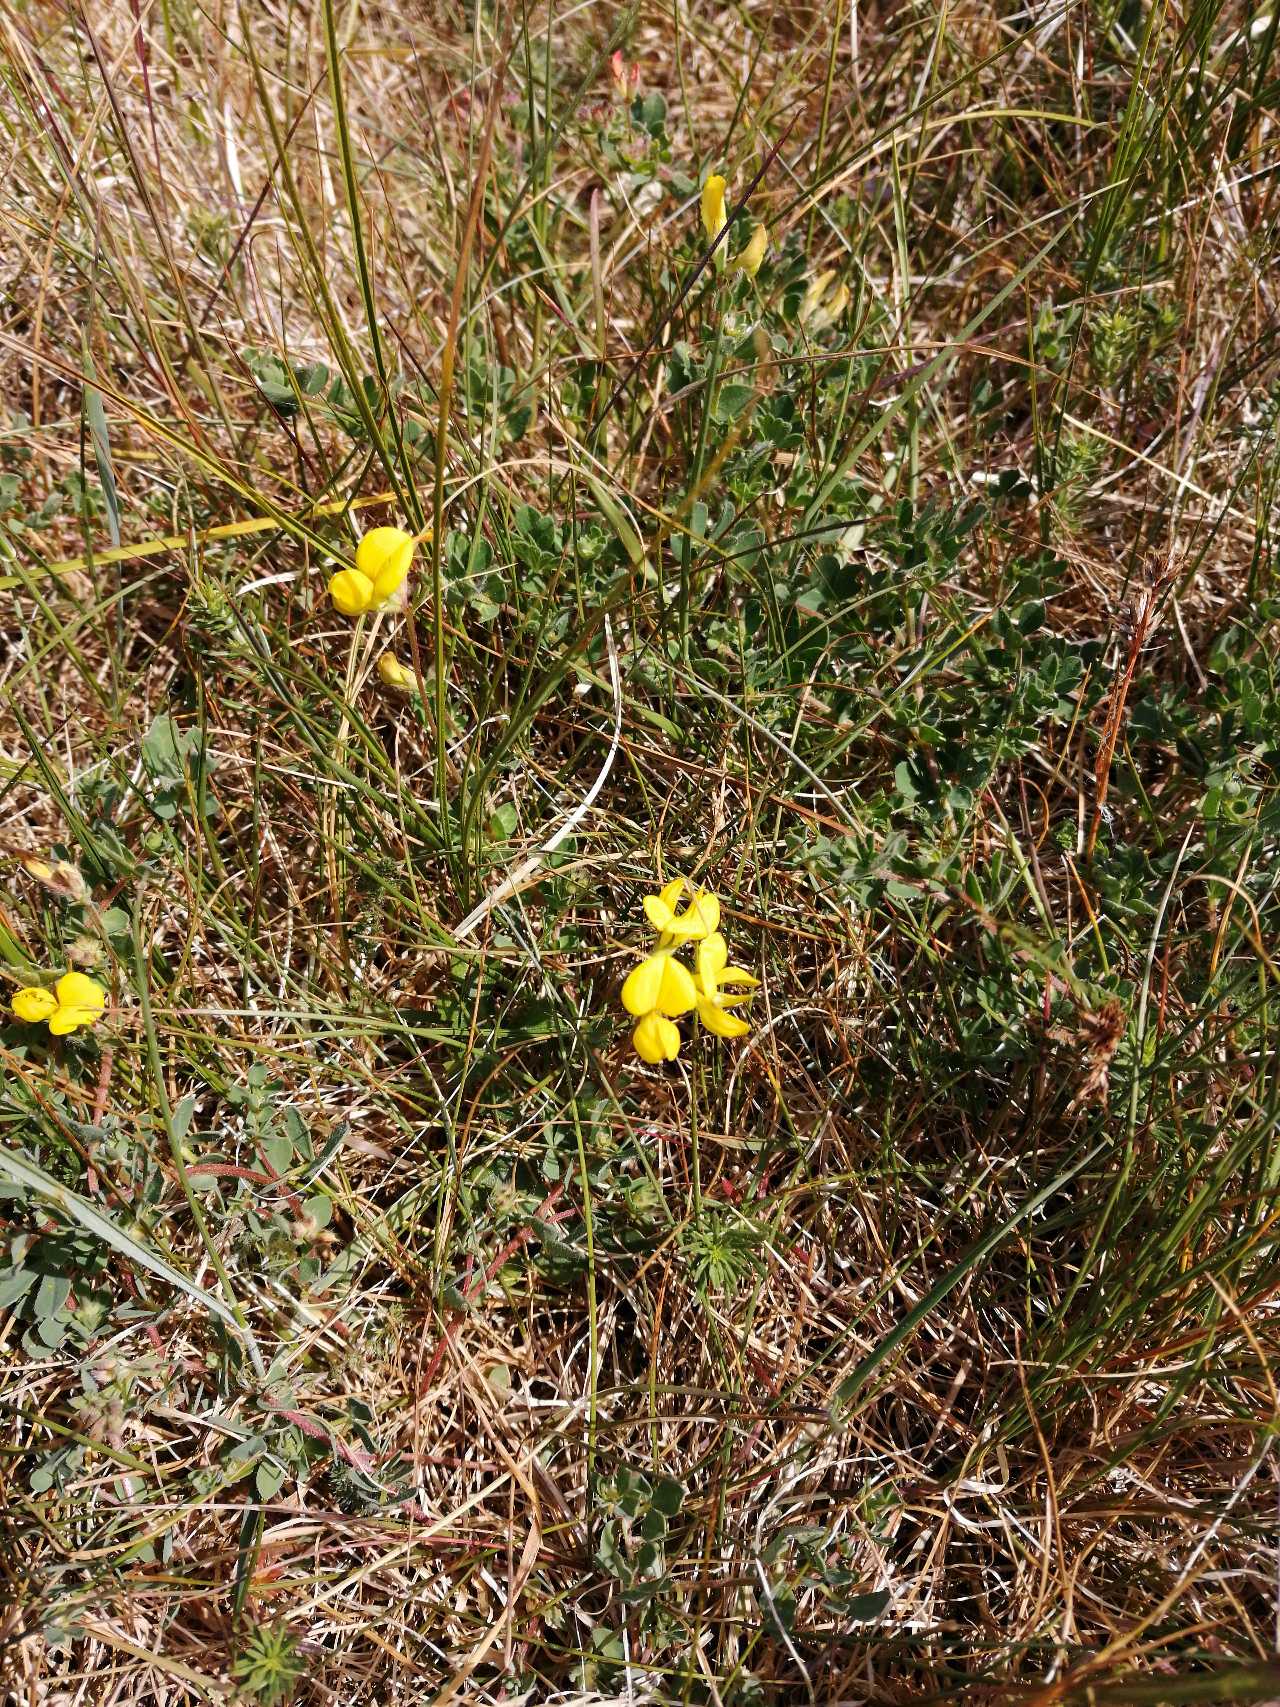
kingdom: Plantae
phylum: Tracheophyta
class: Magnoliopsida
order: Fabales
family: Fabaceae
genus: Lotus
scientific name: Lotus corniculatus
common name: Almindelig kællingetand
